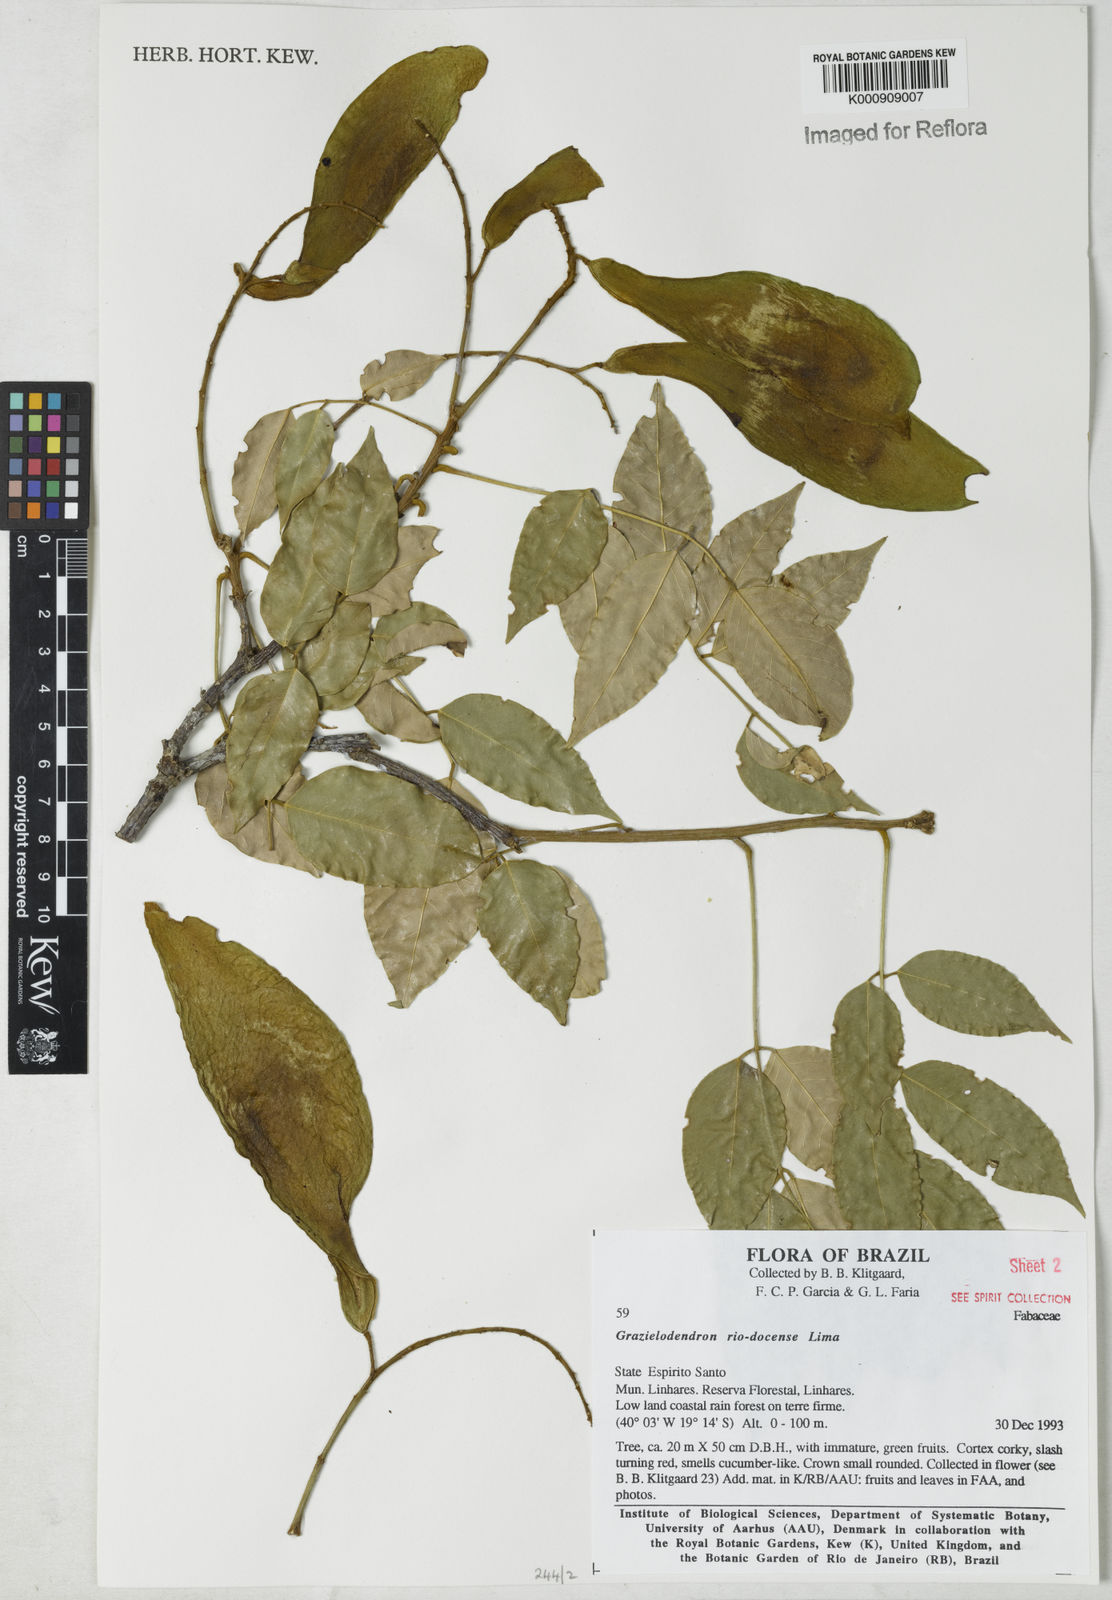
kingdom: Plantae
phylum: Tracheophyta
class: Magnoliopsida
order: Fabales
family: Fabaceae
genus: Grazielodendron
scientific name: Grazielodendron riodocensis
